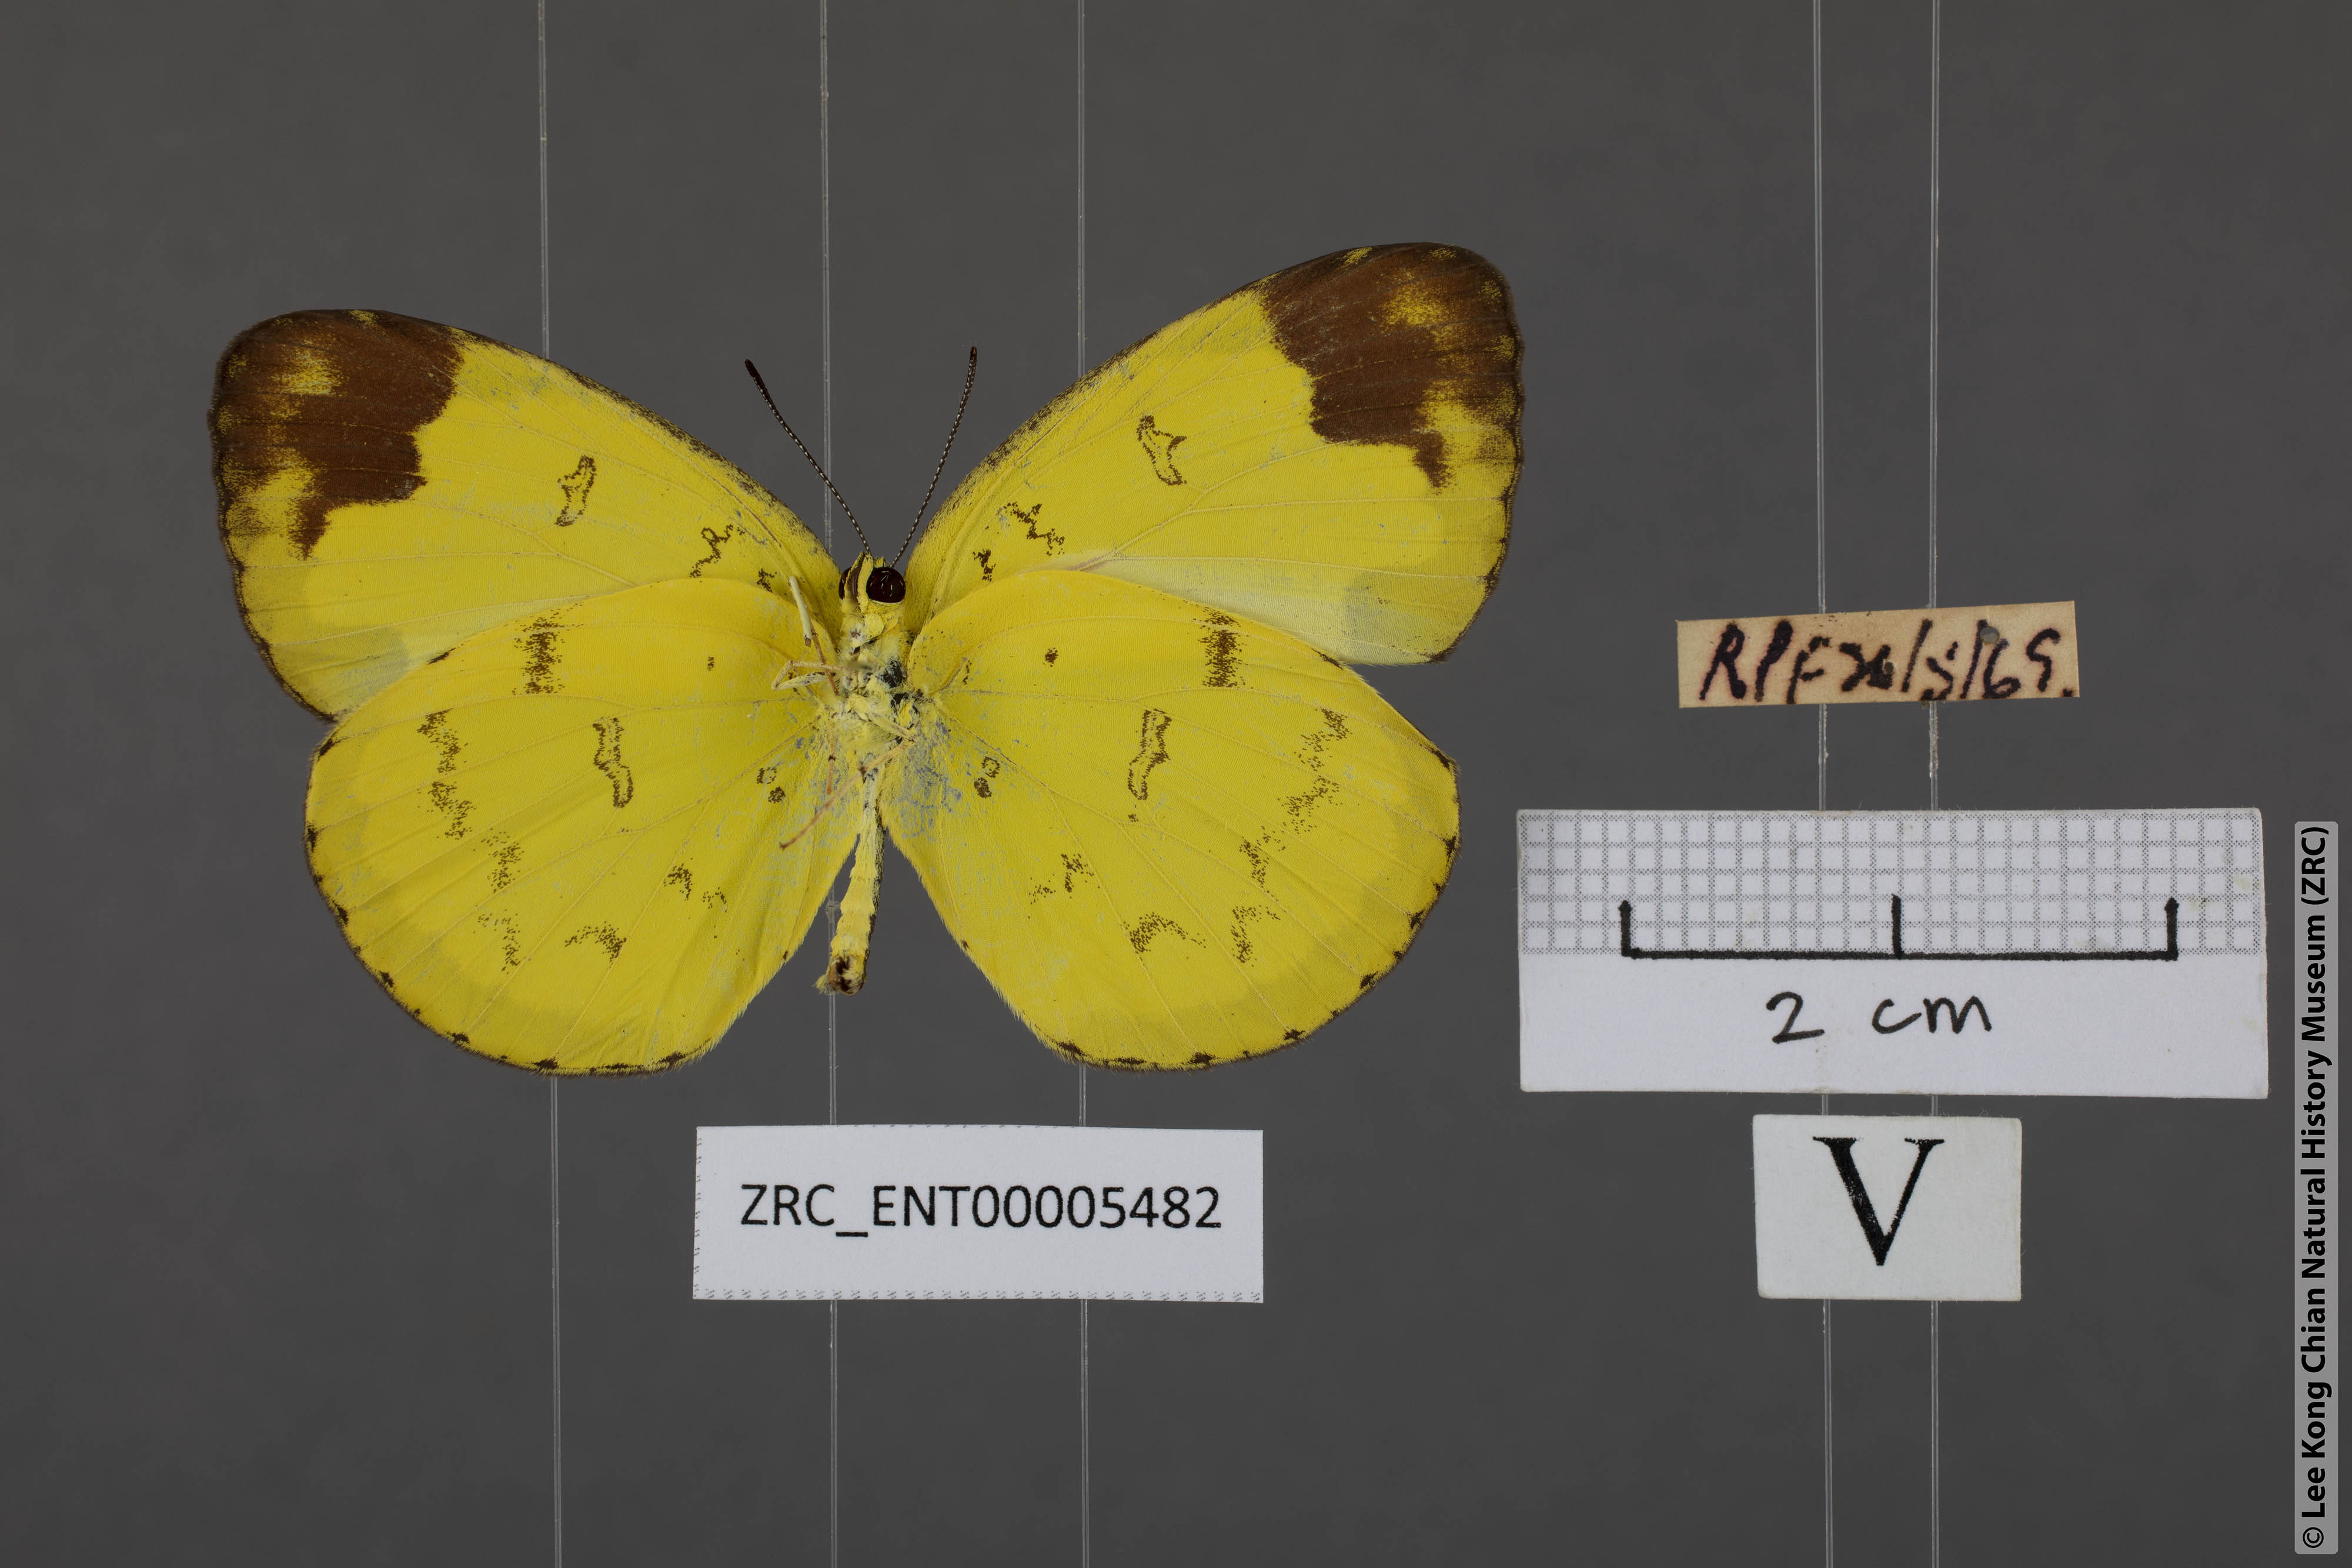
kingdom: Animalia
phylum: Arthropoda
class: Insecta
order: Lepidoptera
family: Pieridae
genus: Eurema
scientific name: Eurema simulatrix
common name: Hill grass yellow
